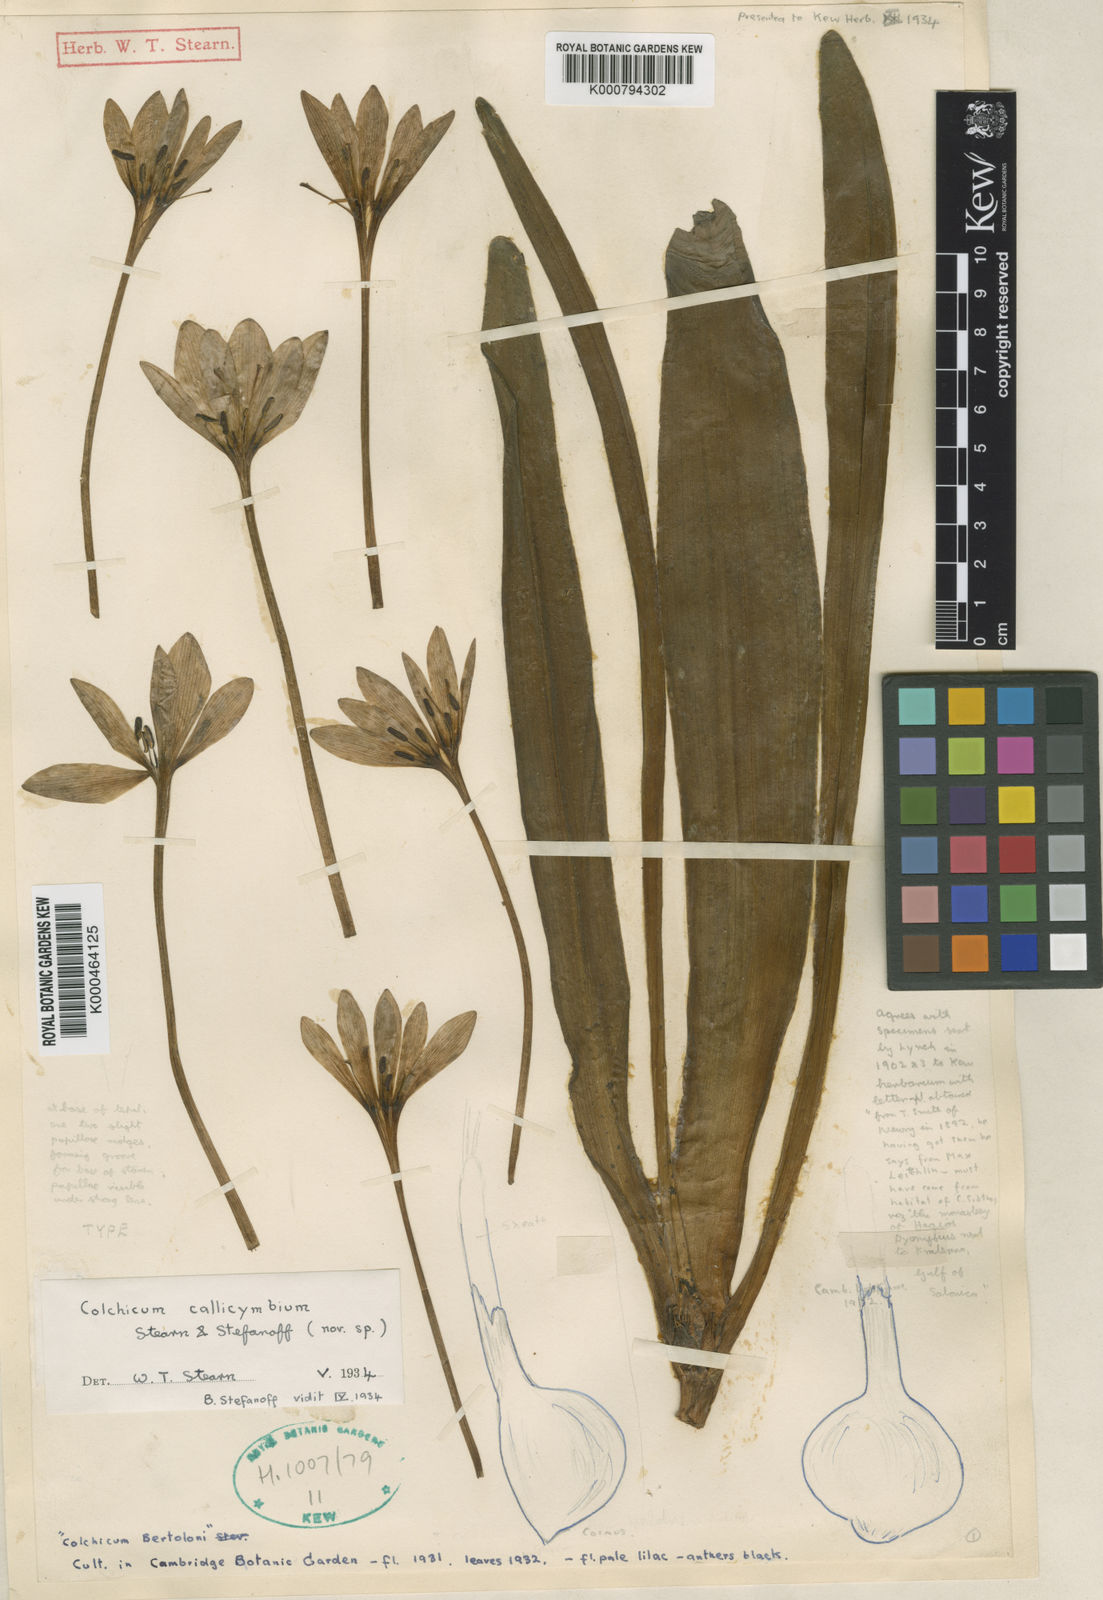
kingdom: Plantae
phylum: Tracheophyta
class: Liliopsida
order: Liliales
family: Colchicaceae
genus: Colchicum
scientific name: Colchicum haynaldii
